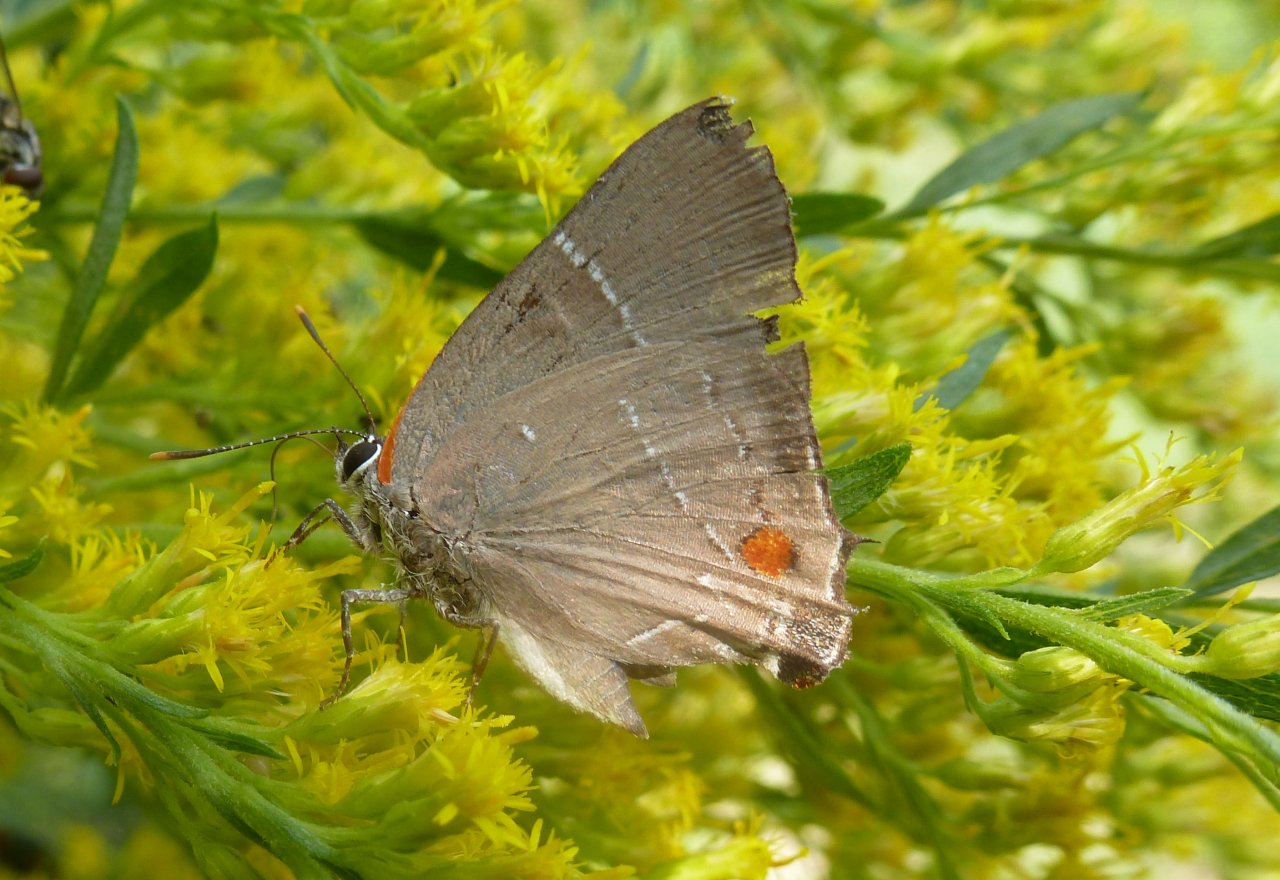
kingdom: Animalia
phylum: Arthropoda
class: Insecta
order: Lepidoptera
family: Lycaenidae
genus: Parrhasius
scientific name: Parrhasius m-album
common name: White-m Hairstreak
